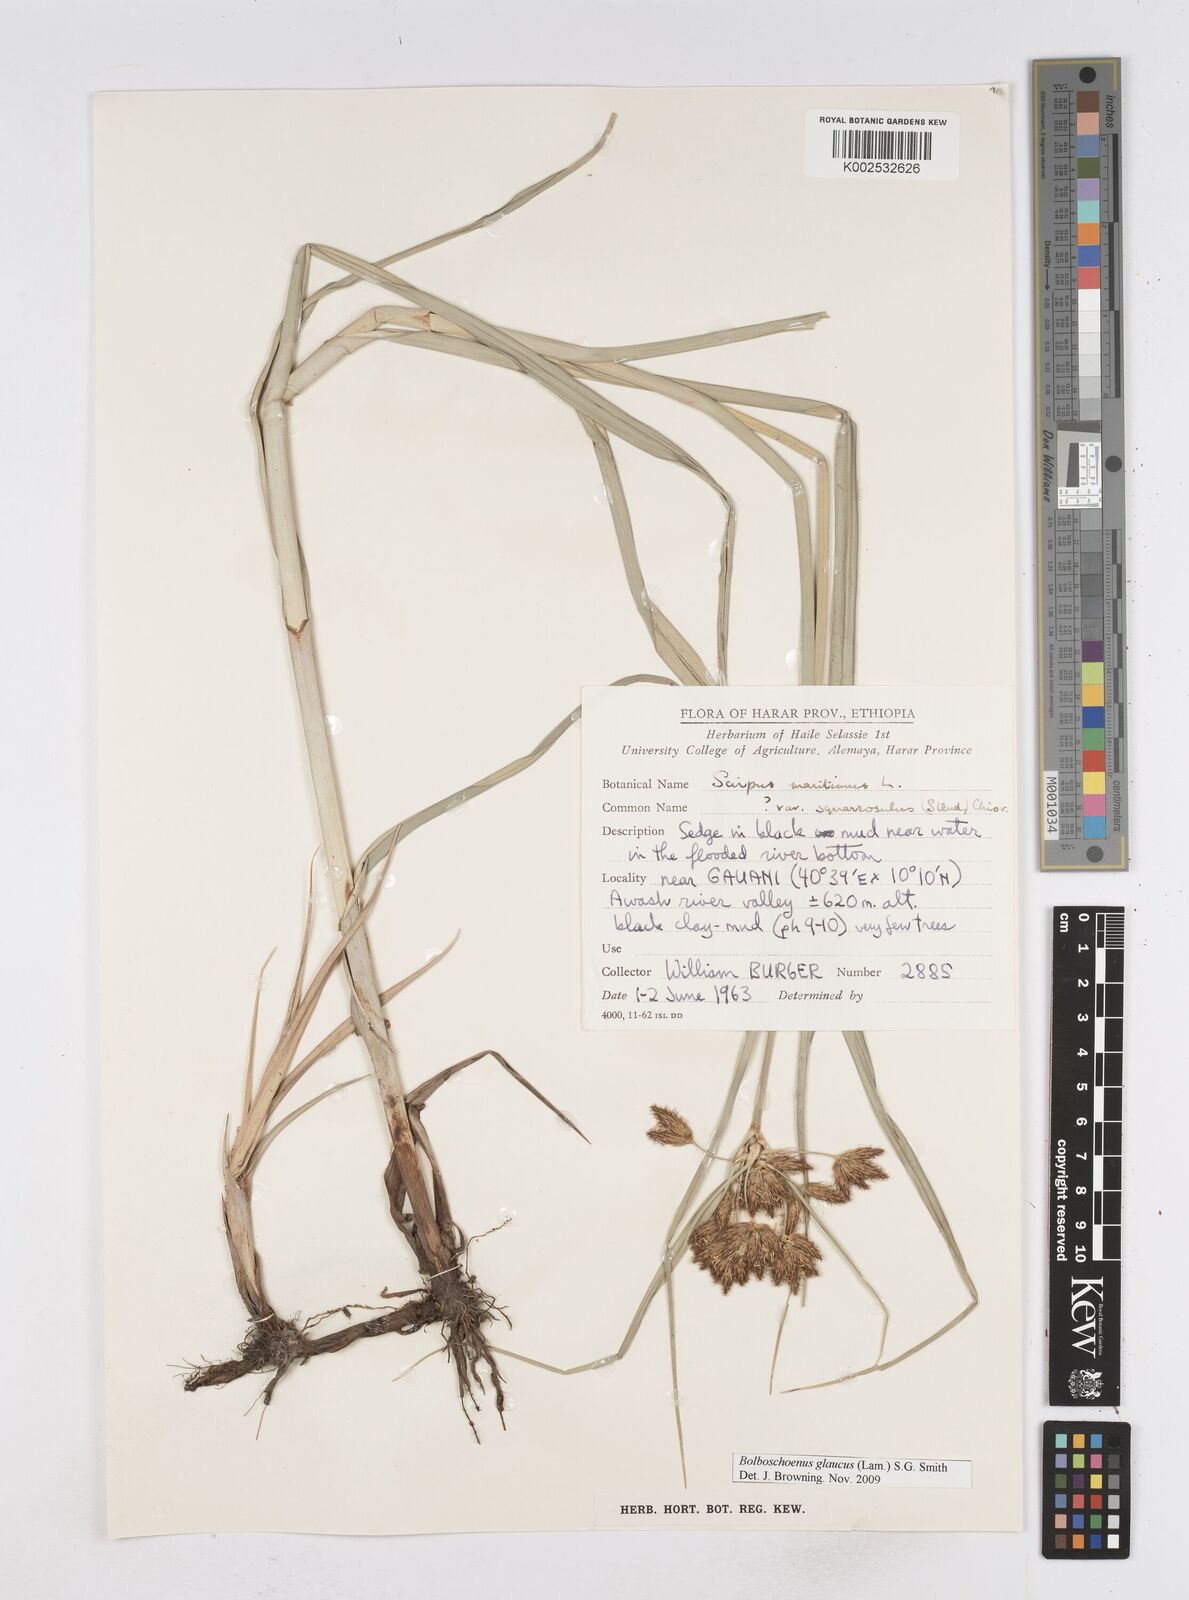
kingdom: Plantae
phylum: Tracheophyta
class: Liliopsida
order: Poales
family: Cyperaceae
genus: Bolboschoenus
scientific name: Bolboschoenus glaucus
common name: Tuberous bulrush
